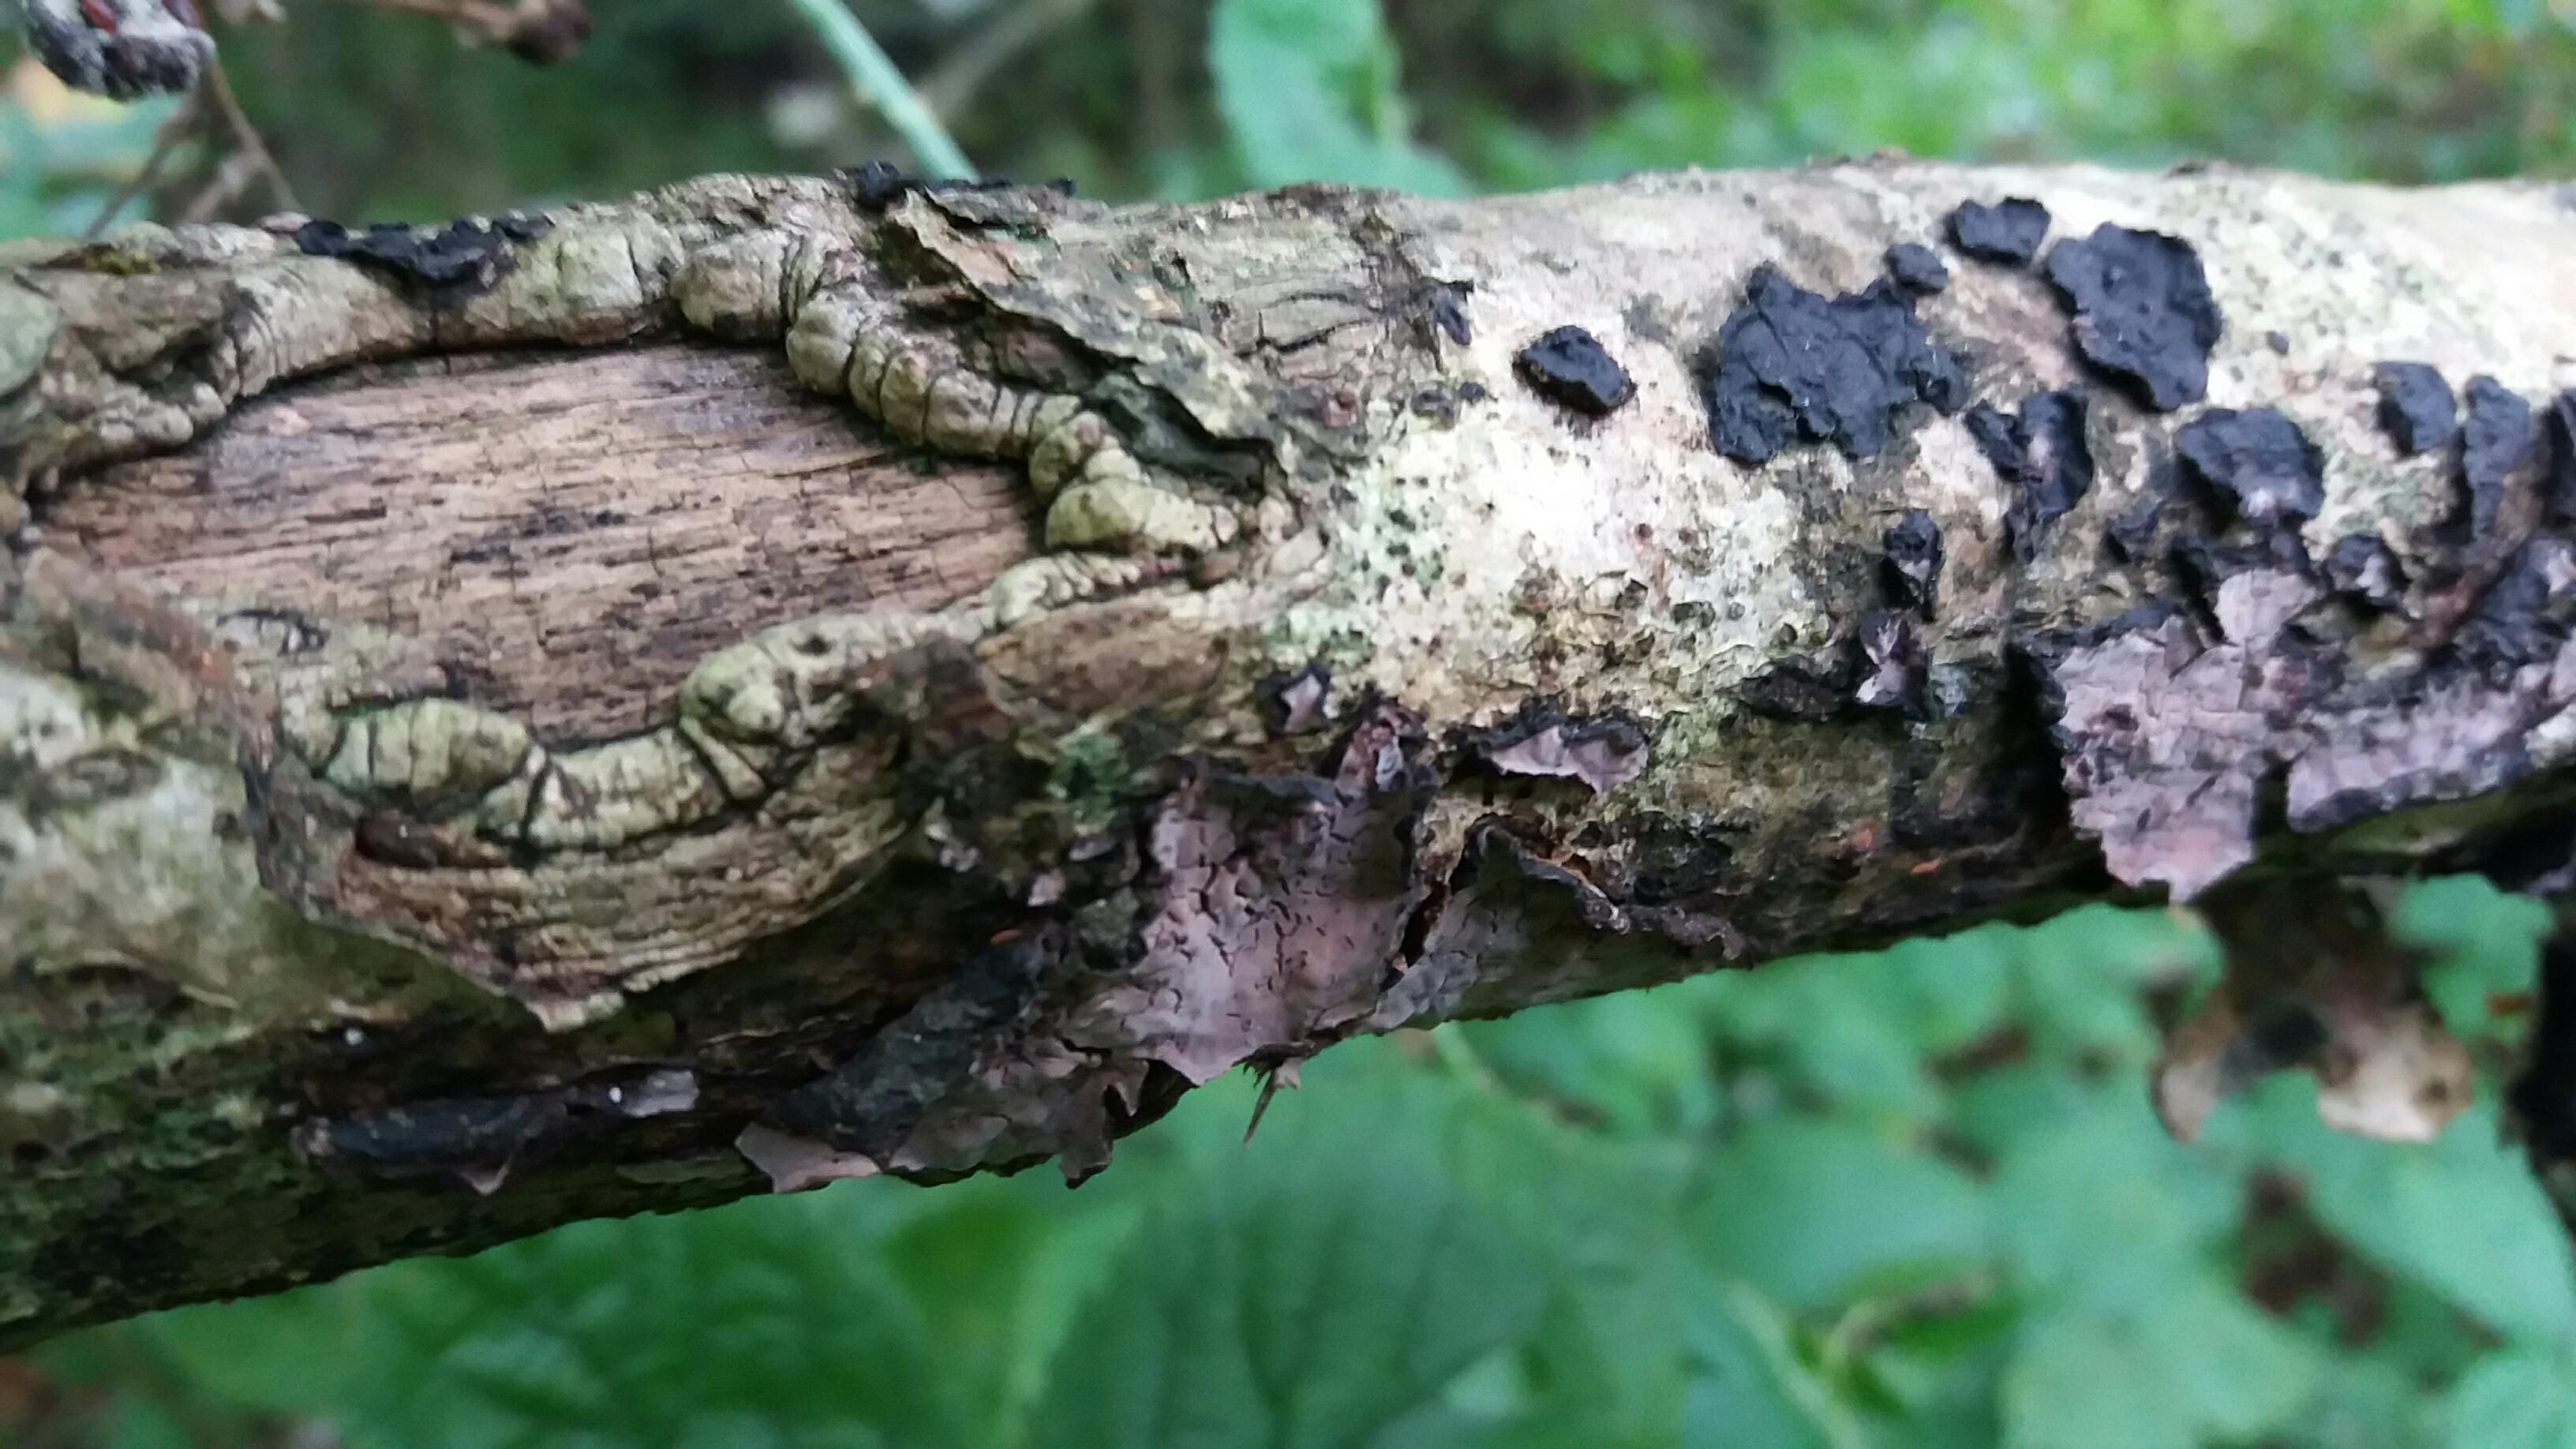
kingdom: Fungi
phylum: Basidiomycota
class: Agaricomycetes
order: Russulales
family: Peniophoraceae
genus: Peniophora
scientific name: Peniophora quercina
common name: ege-voksskind
